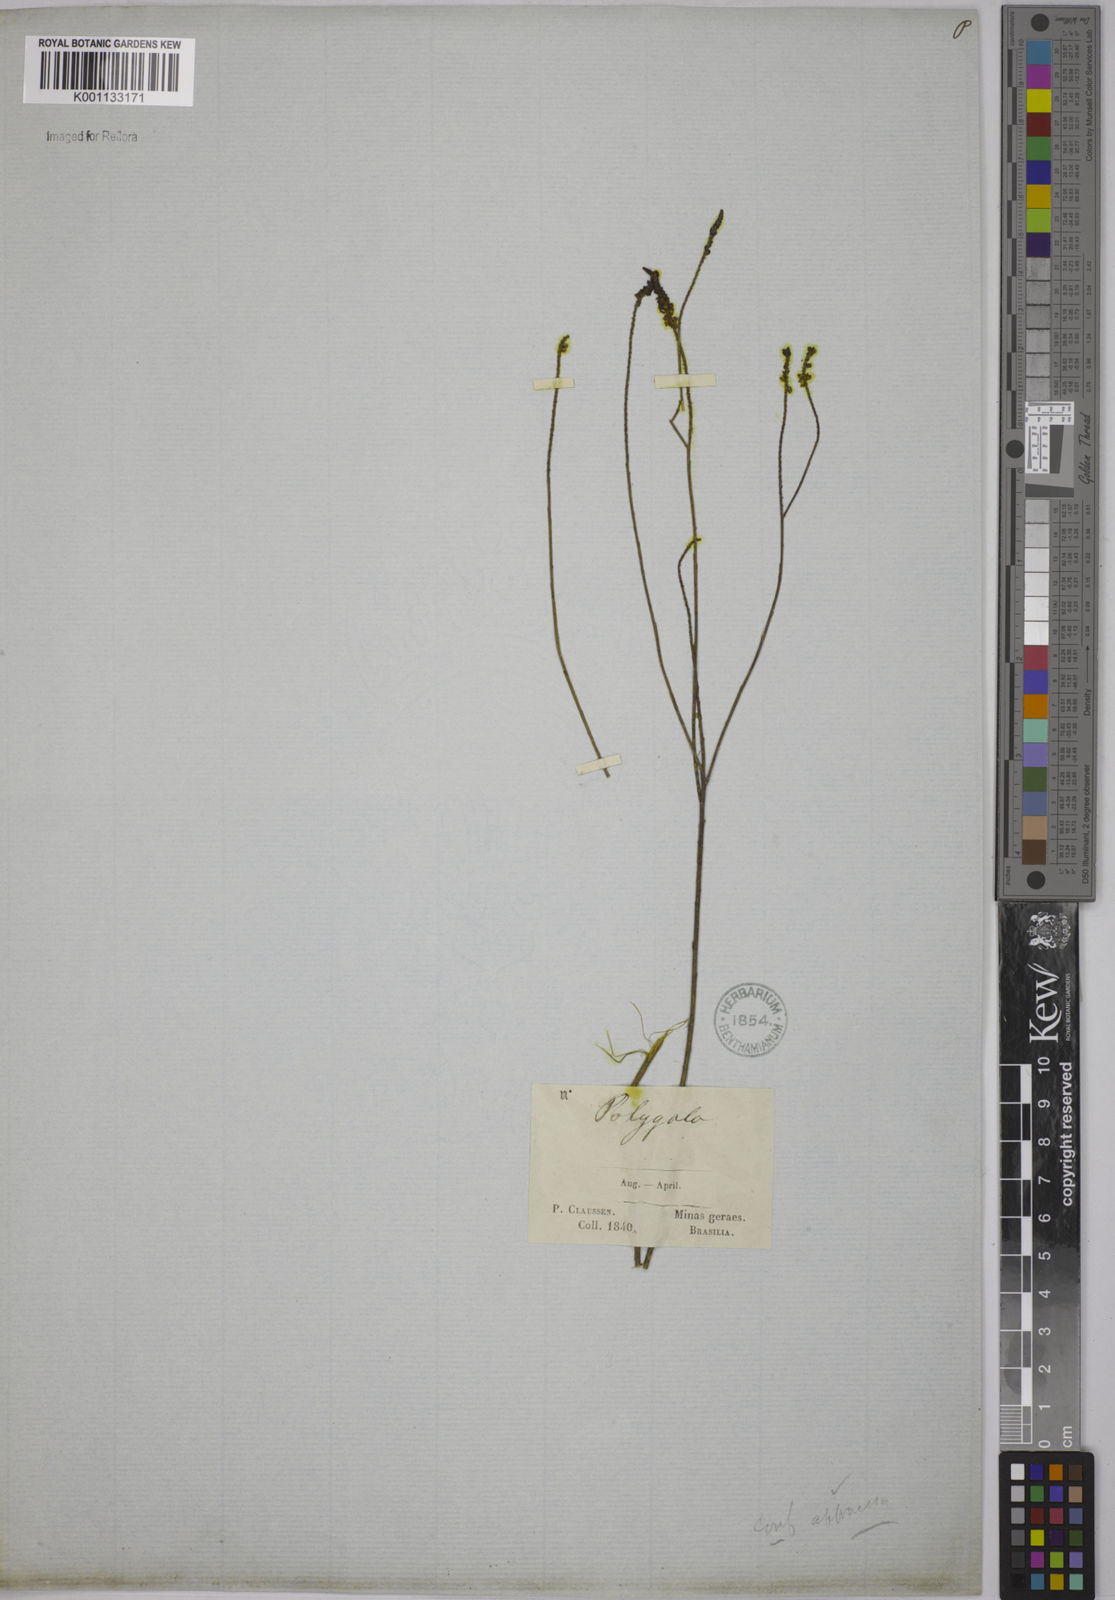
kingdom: Plantae
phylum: Tracheophyta
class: Magnoliopsida
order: Fabales
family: Polygalaceae
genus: Polygala
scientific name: Polygala atropurpurea
